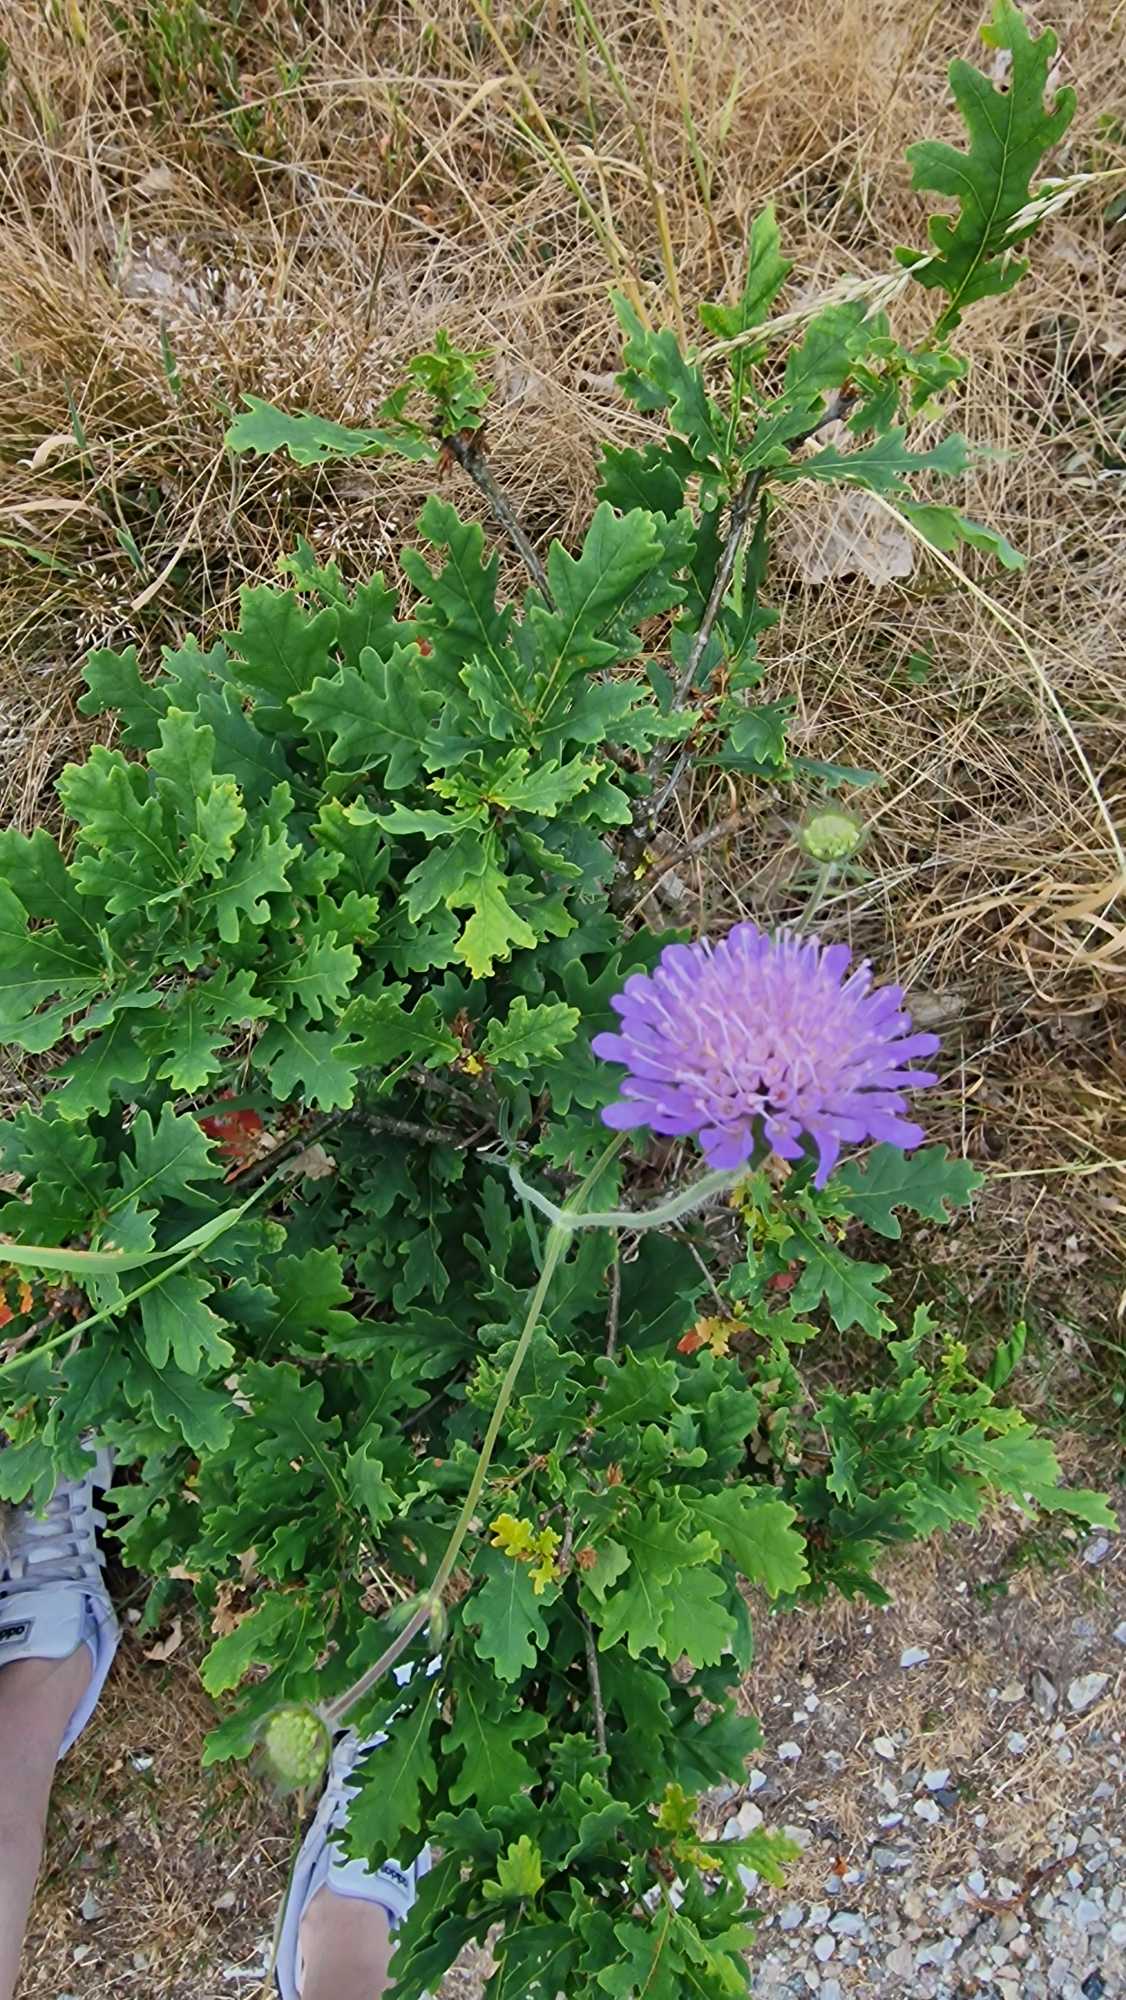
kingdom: Plantae
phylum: Tracheophyta
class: Magnoliopsida
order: Dipsacales
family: Caprifoliaceae
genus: Knautia
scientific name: Knautia arvensis
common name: Blåhat
